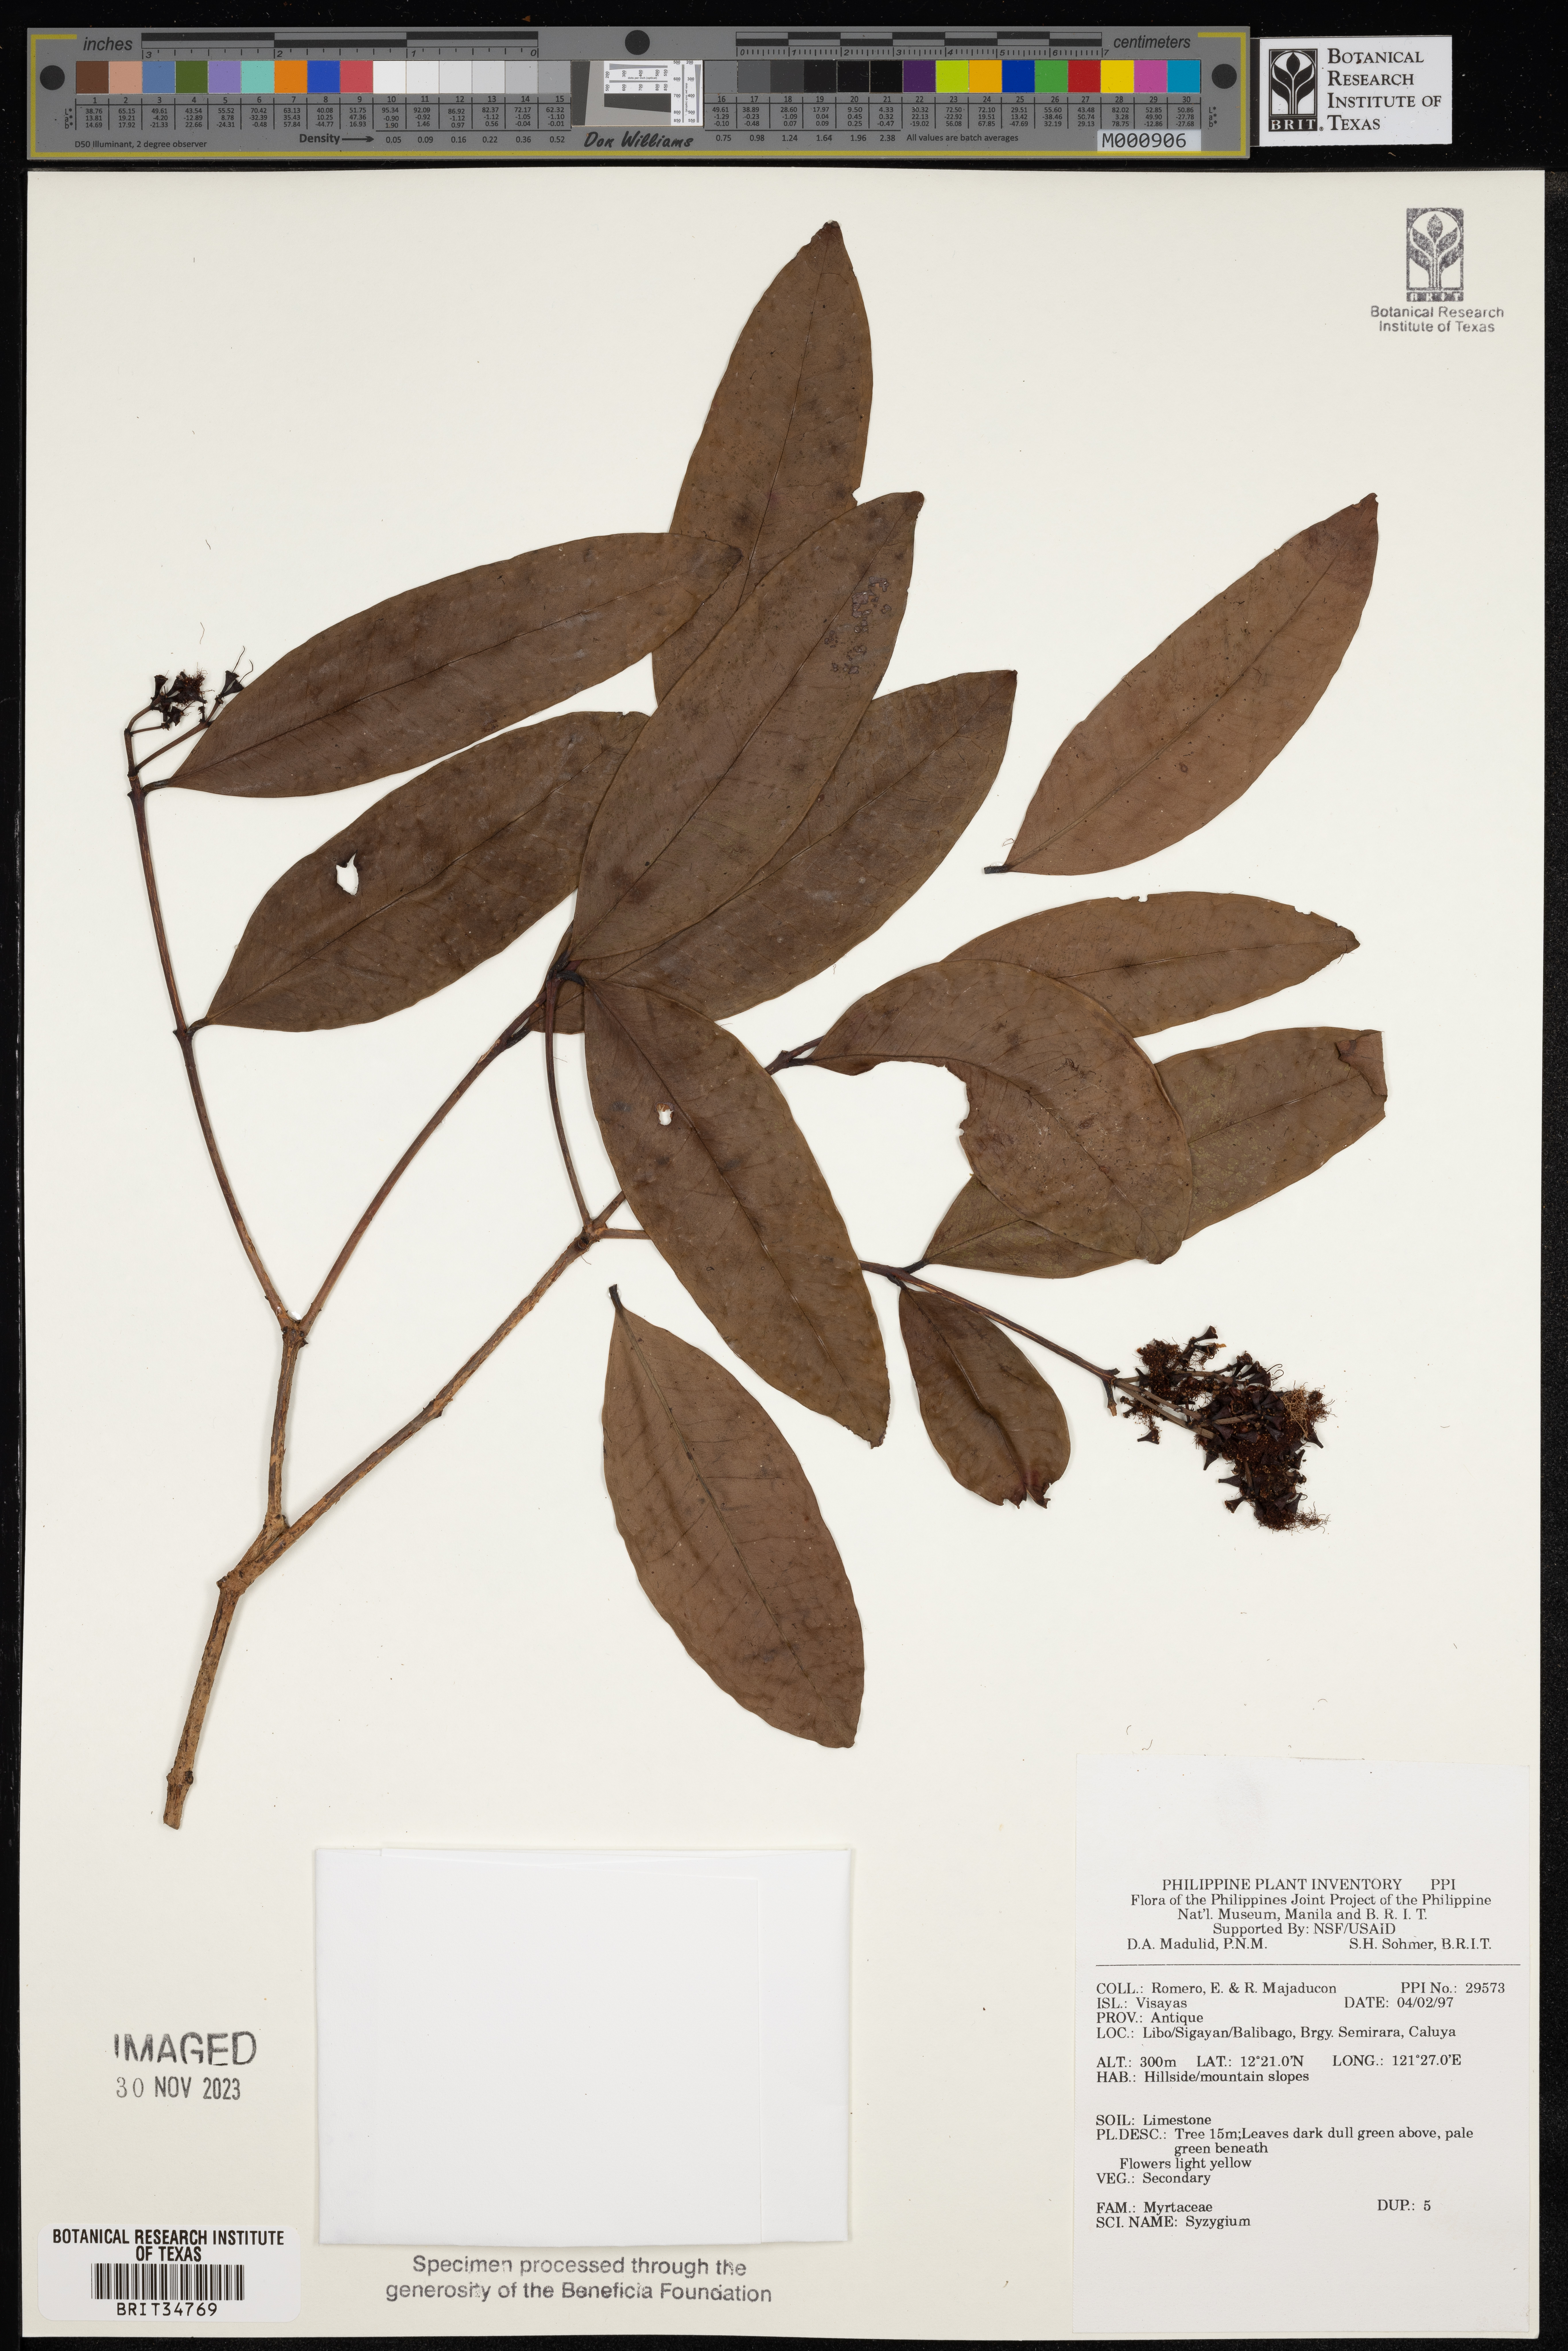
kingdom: Plantae
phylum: Tracheophyta
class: Magnoliopsida
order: Myrtales
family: Myrtaceae
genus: Syzygium
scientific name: Syzygium
